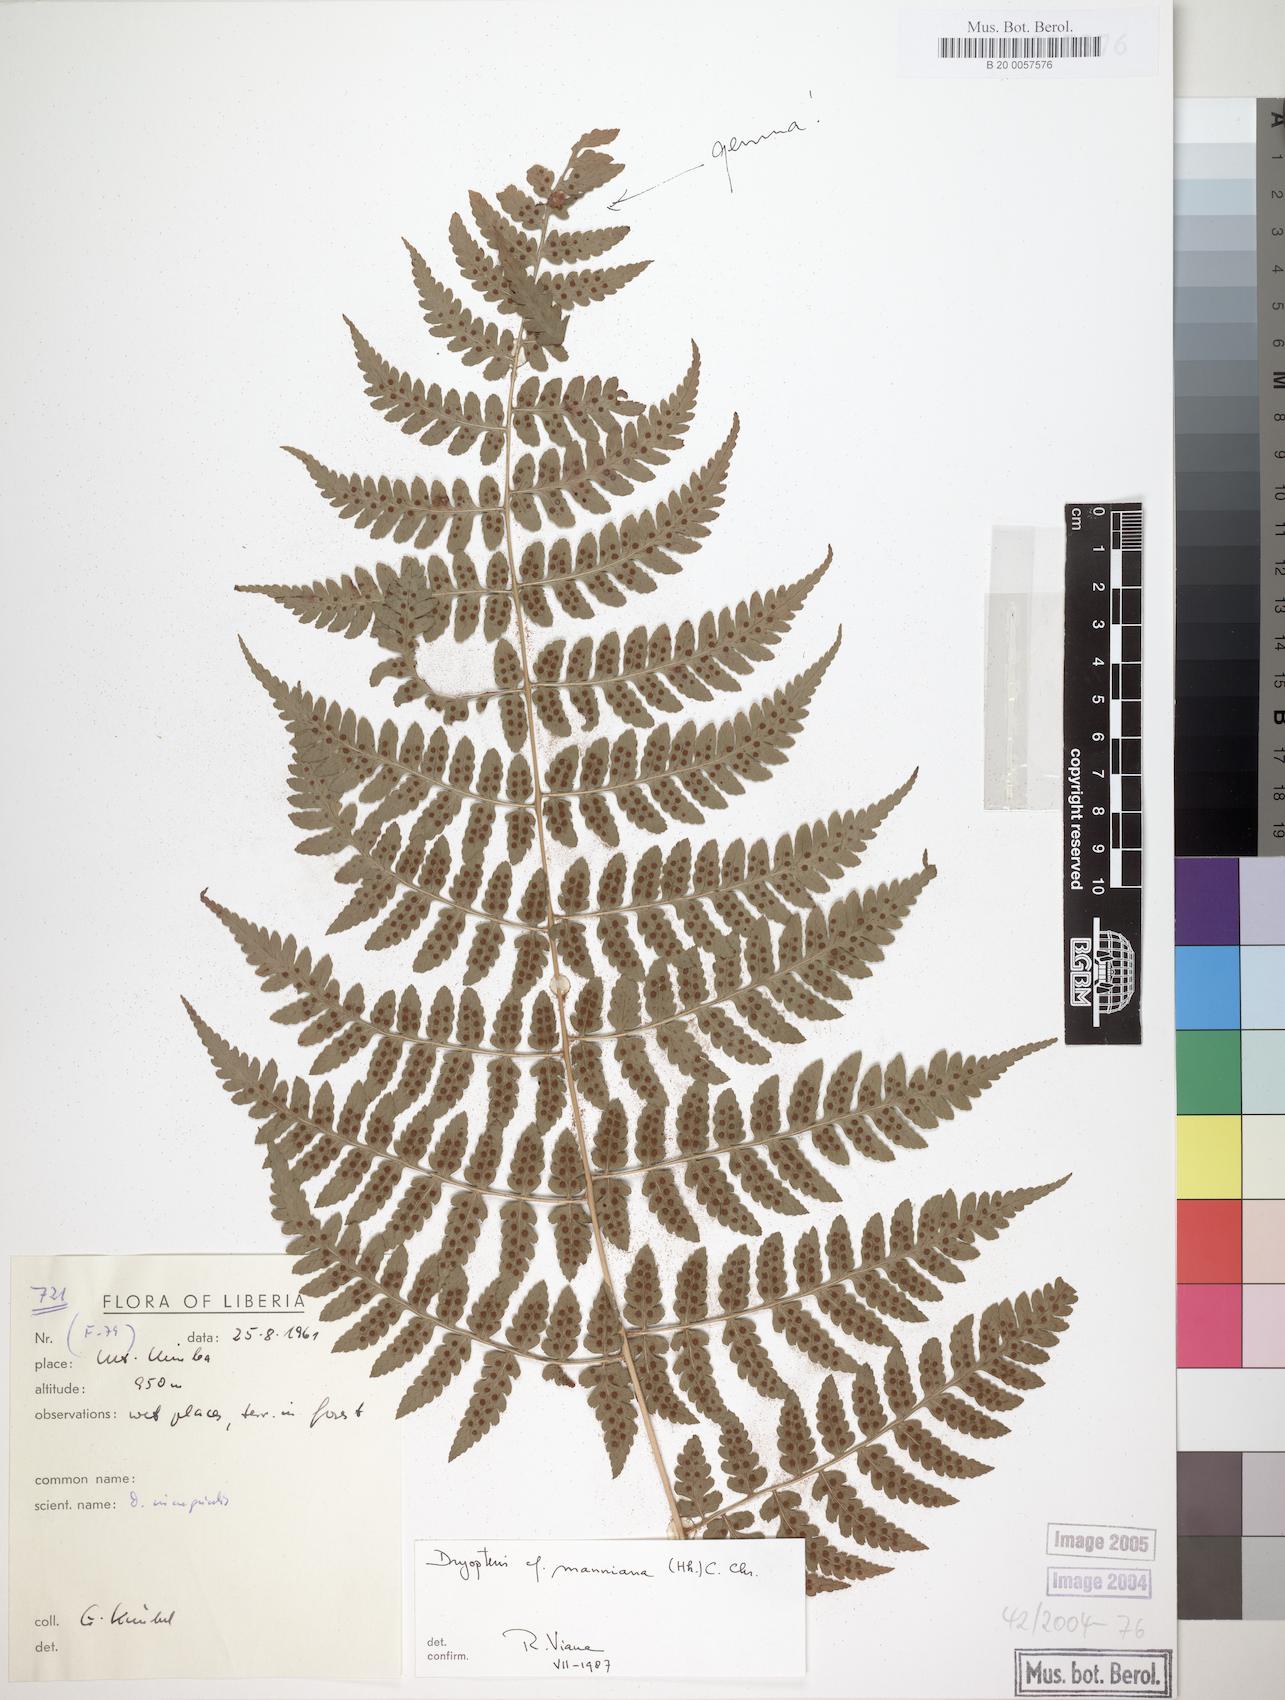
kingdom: Plantae
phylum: Tracheophyta
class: Polypodiopsida
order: Polypodiales
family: Dryopteridaceae
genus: Dryopteris
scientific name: Dryopteris manniana
